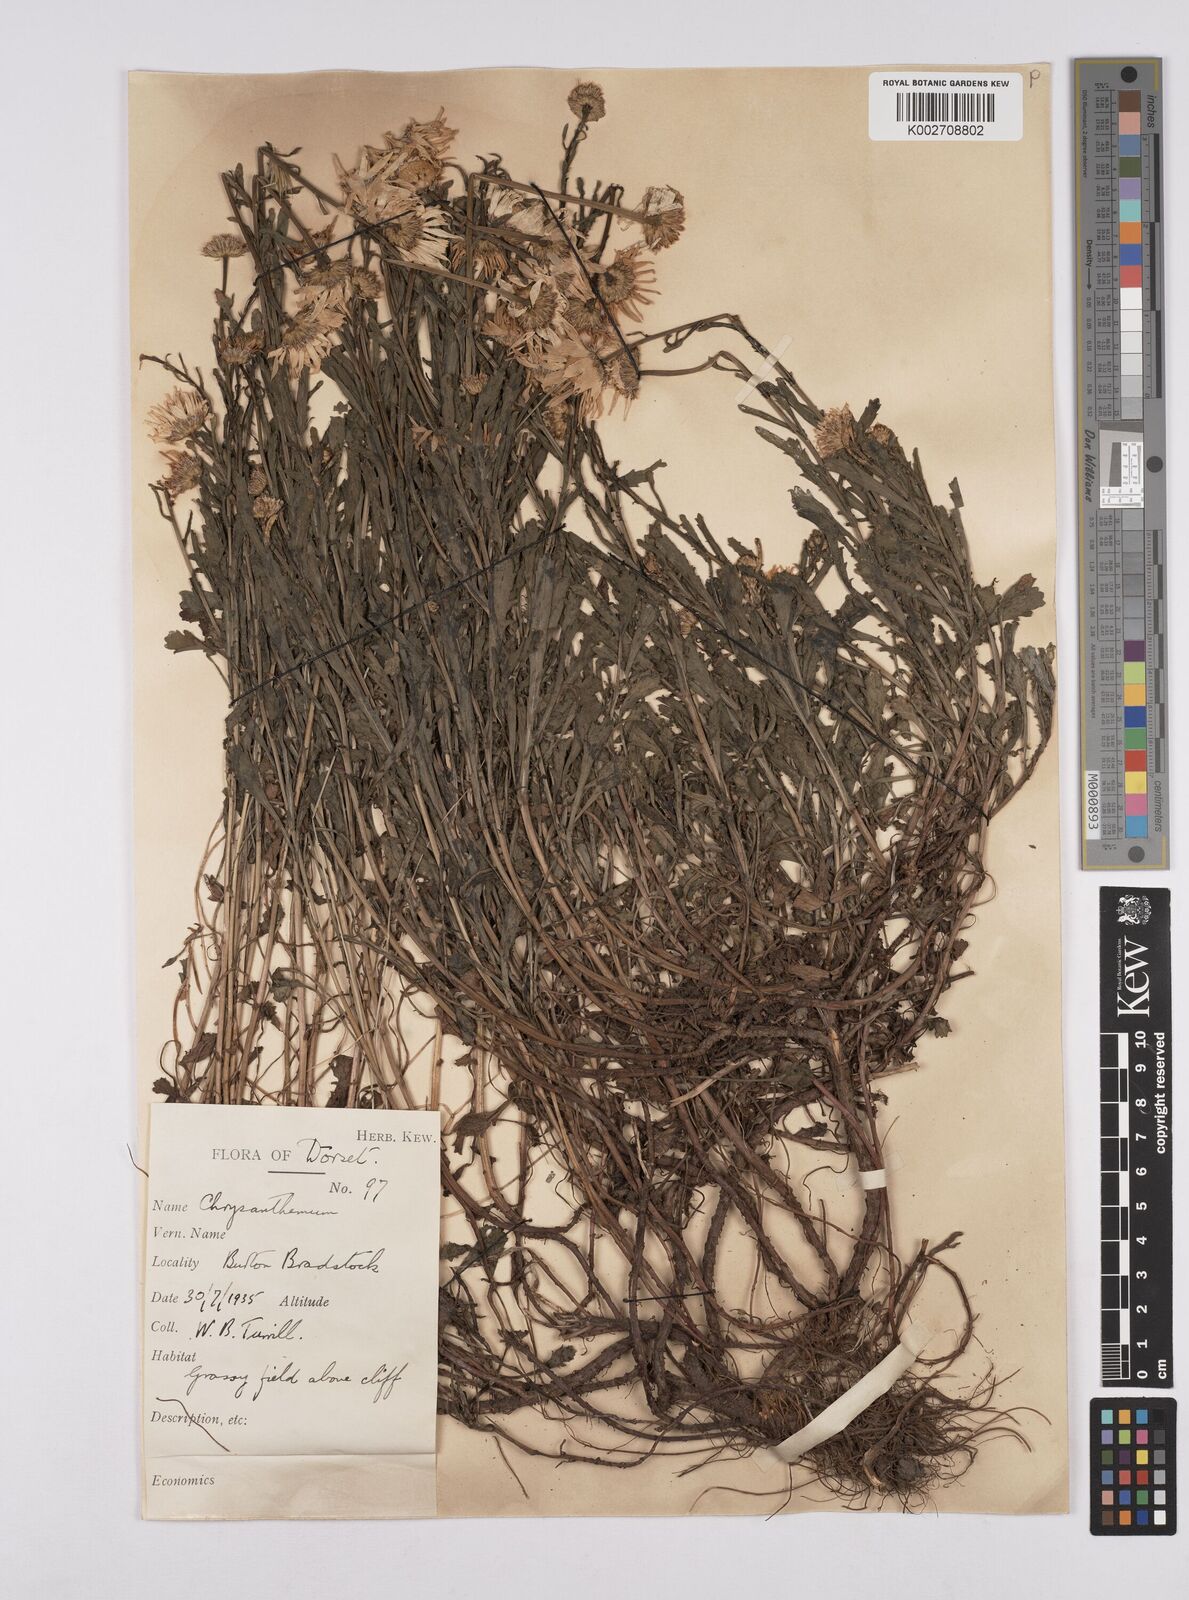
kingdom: Plantae
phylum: Tracheophyta
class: Magnoliopsida
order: Asterales
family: Asteraceae
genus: Leucanthemum
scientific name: Leucanthemum vulgare
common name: Oxeye daisy
